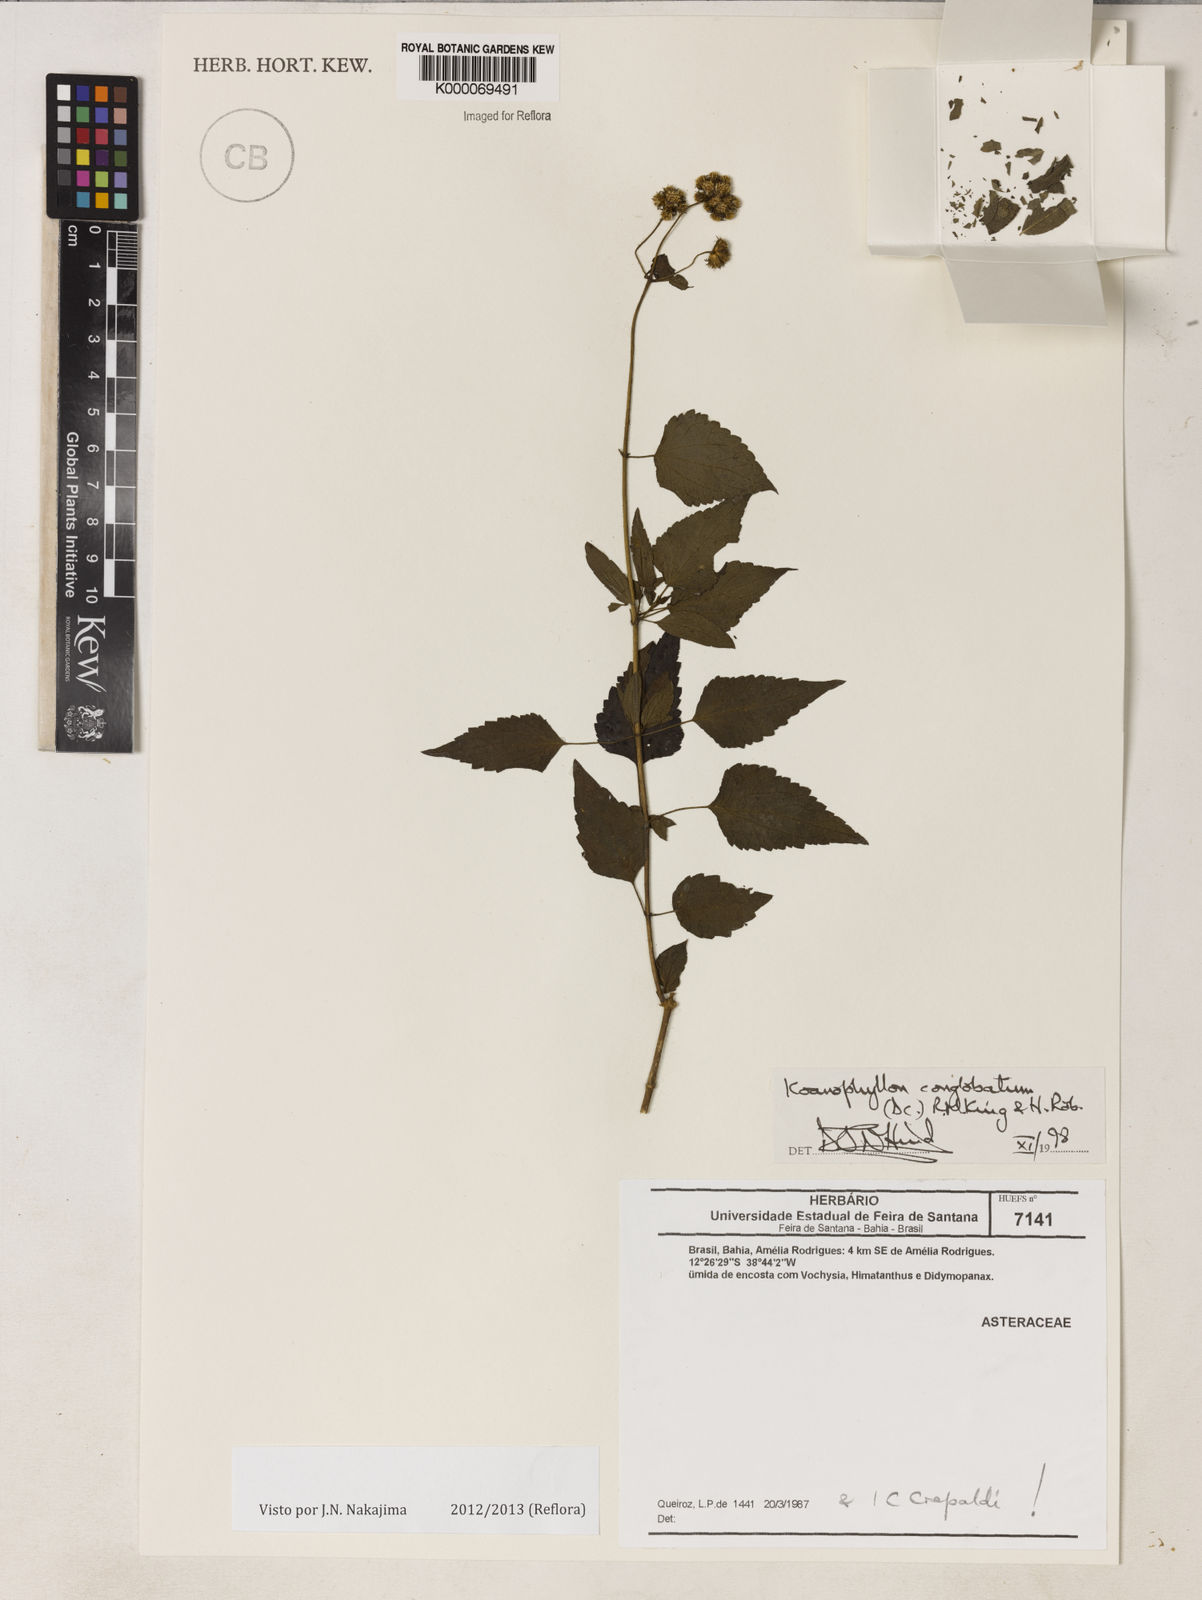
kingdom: Plantae
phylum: Tracheophyta
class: Magnoliopsida
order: Asterales
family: Asteraceae
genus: Koanophyllon
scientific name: Koanophyllon conglobatum
